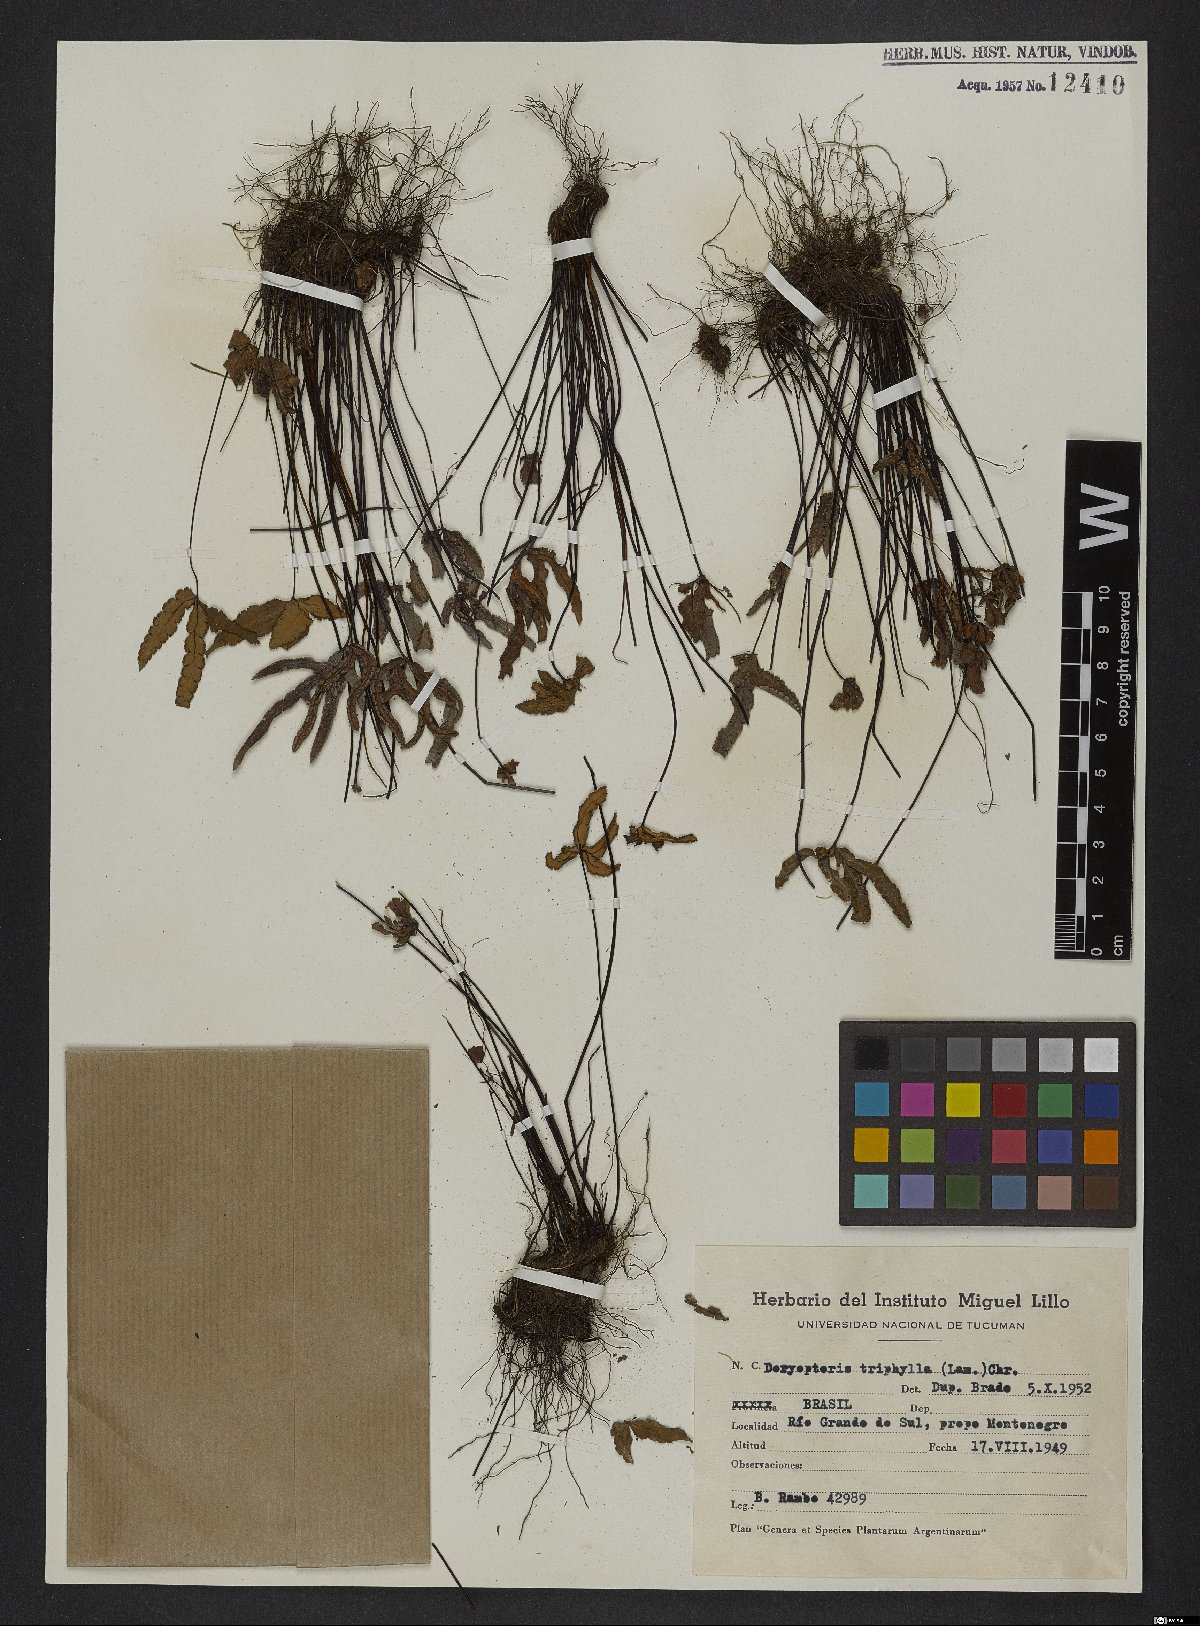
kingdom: Plantae
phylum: Tracheophyta
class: Polypodiopsida
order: Polypodiales
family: Pteridaceae
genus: Doryopteris
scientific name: Doryopteris triphylla
